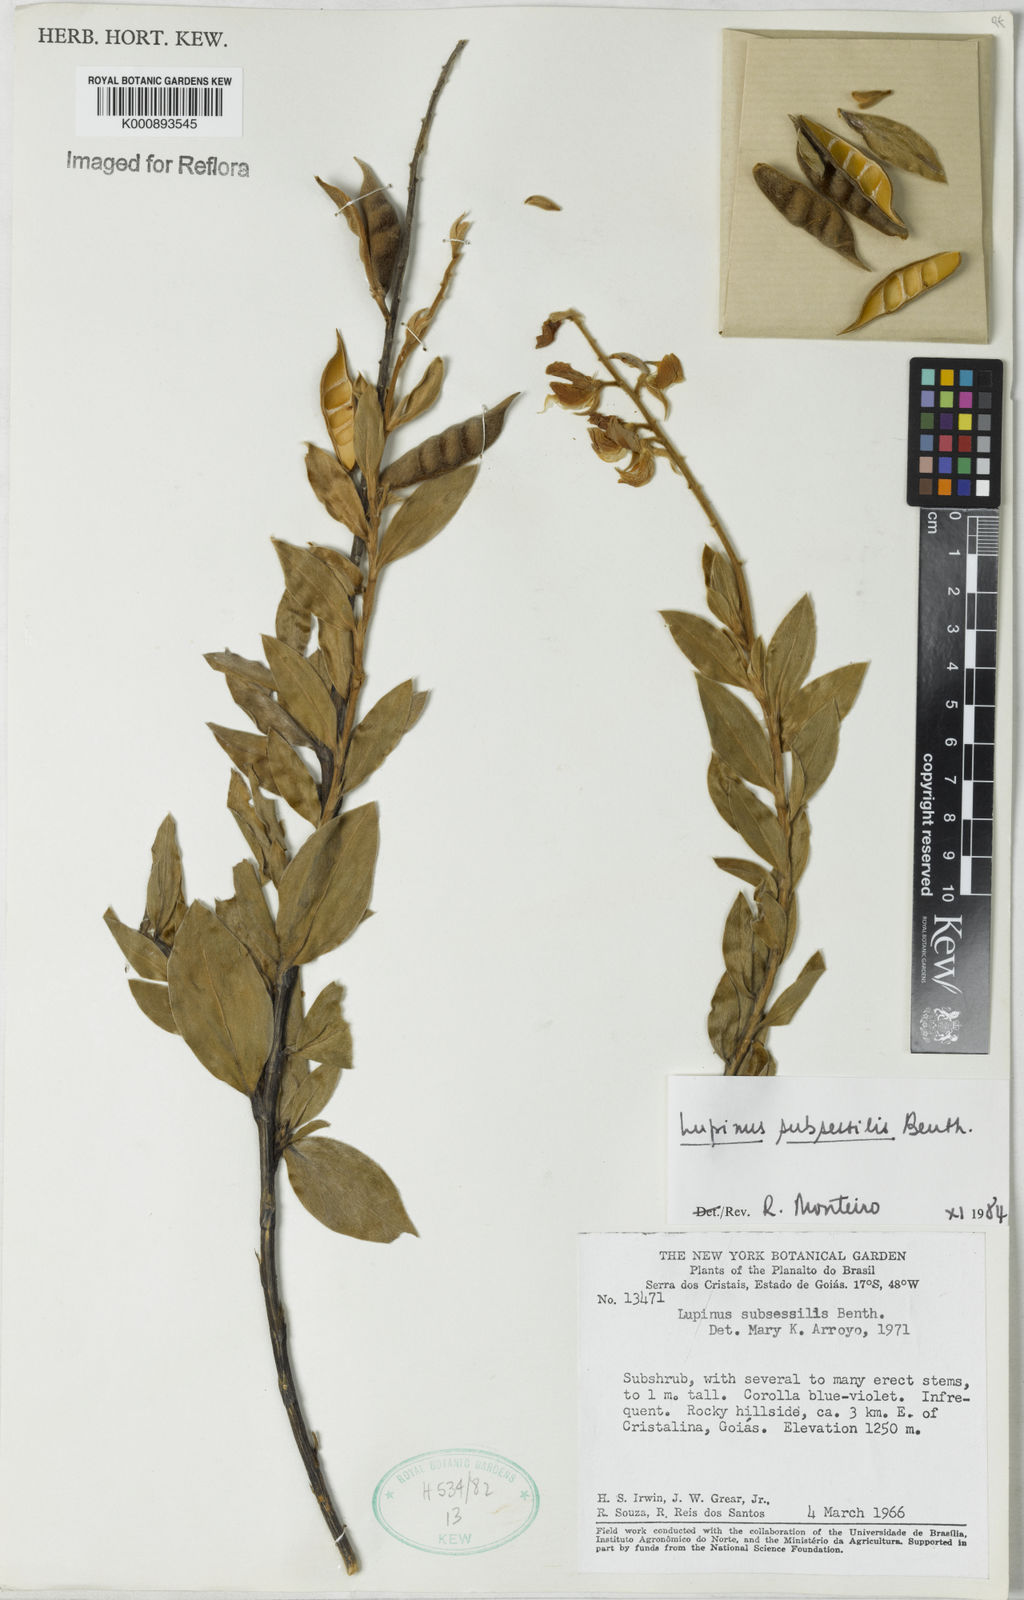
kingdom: Plantae
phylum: Tracheophyta
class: Magnoliopsida
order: Fabales
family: Fabaceae
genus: Lupinus
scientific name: Lupinus subsessilis
